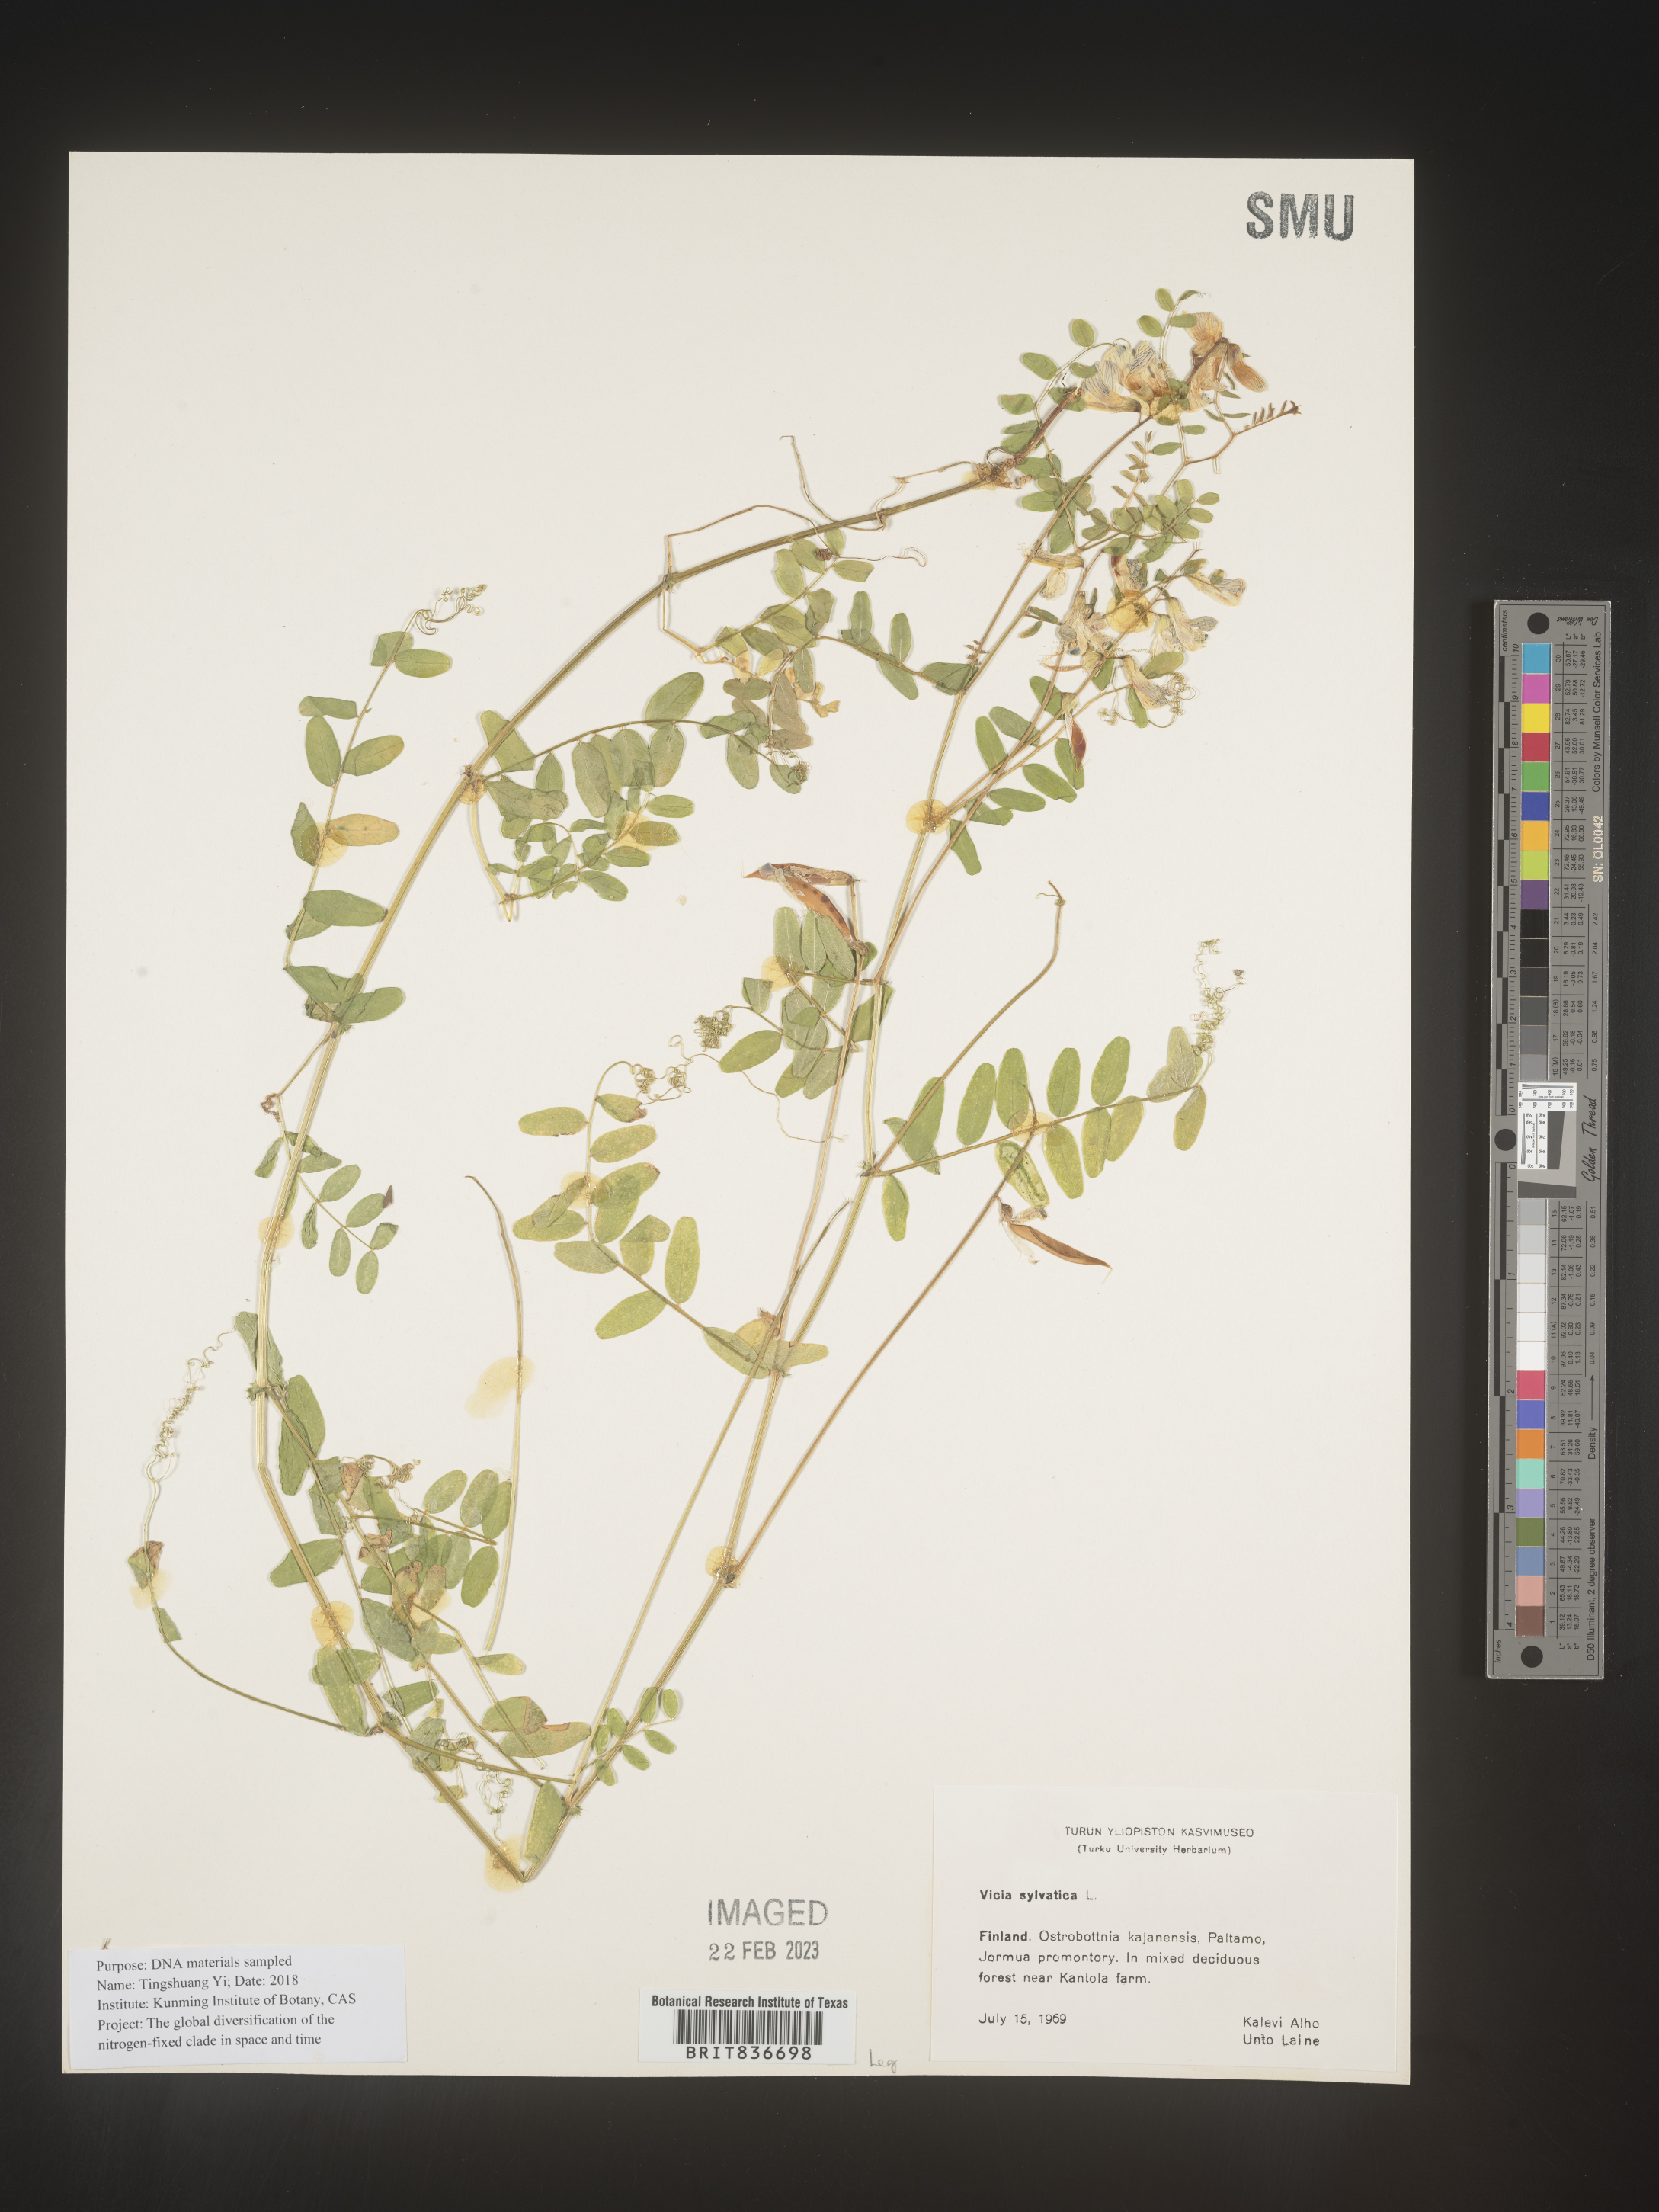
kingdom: Plantae
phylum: Tracheophyta
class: Magnoliopsida
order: Fabales
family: Fabaceae
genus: Vicia
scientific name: Vicia sylvatica
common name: Wood vetch
